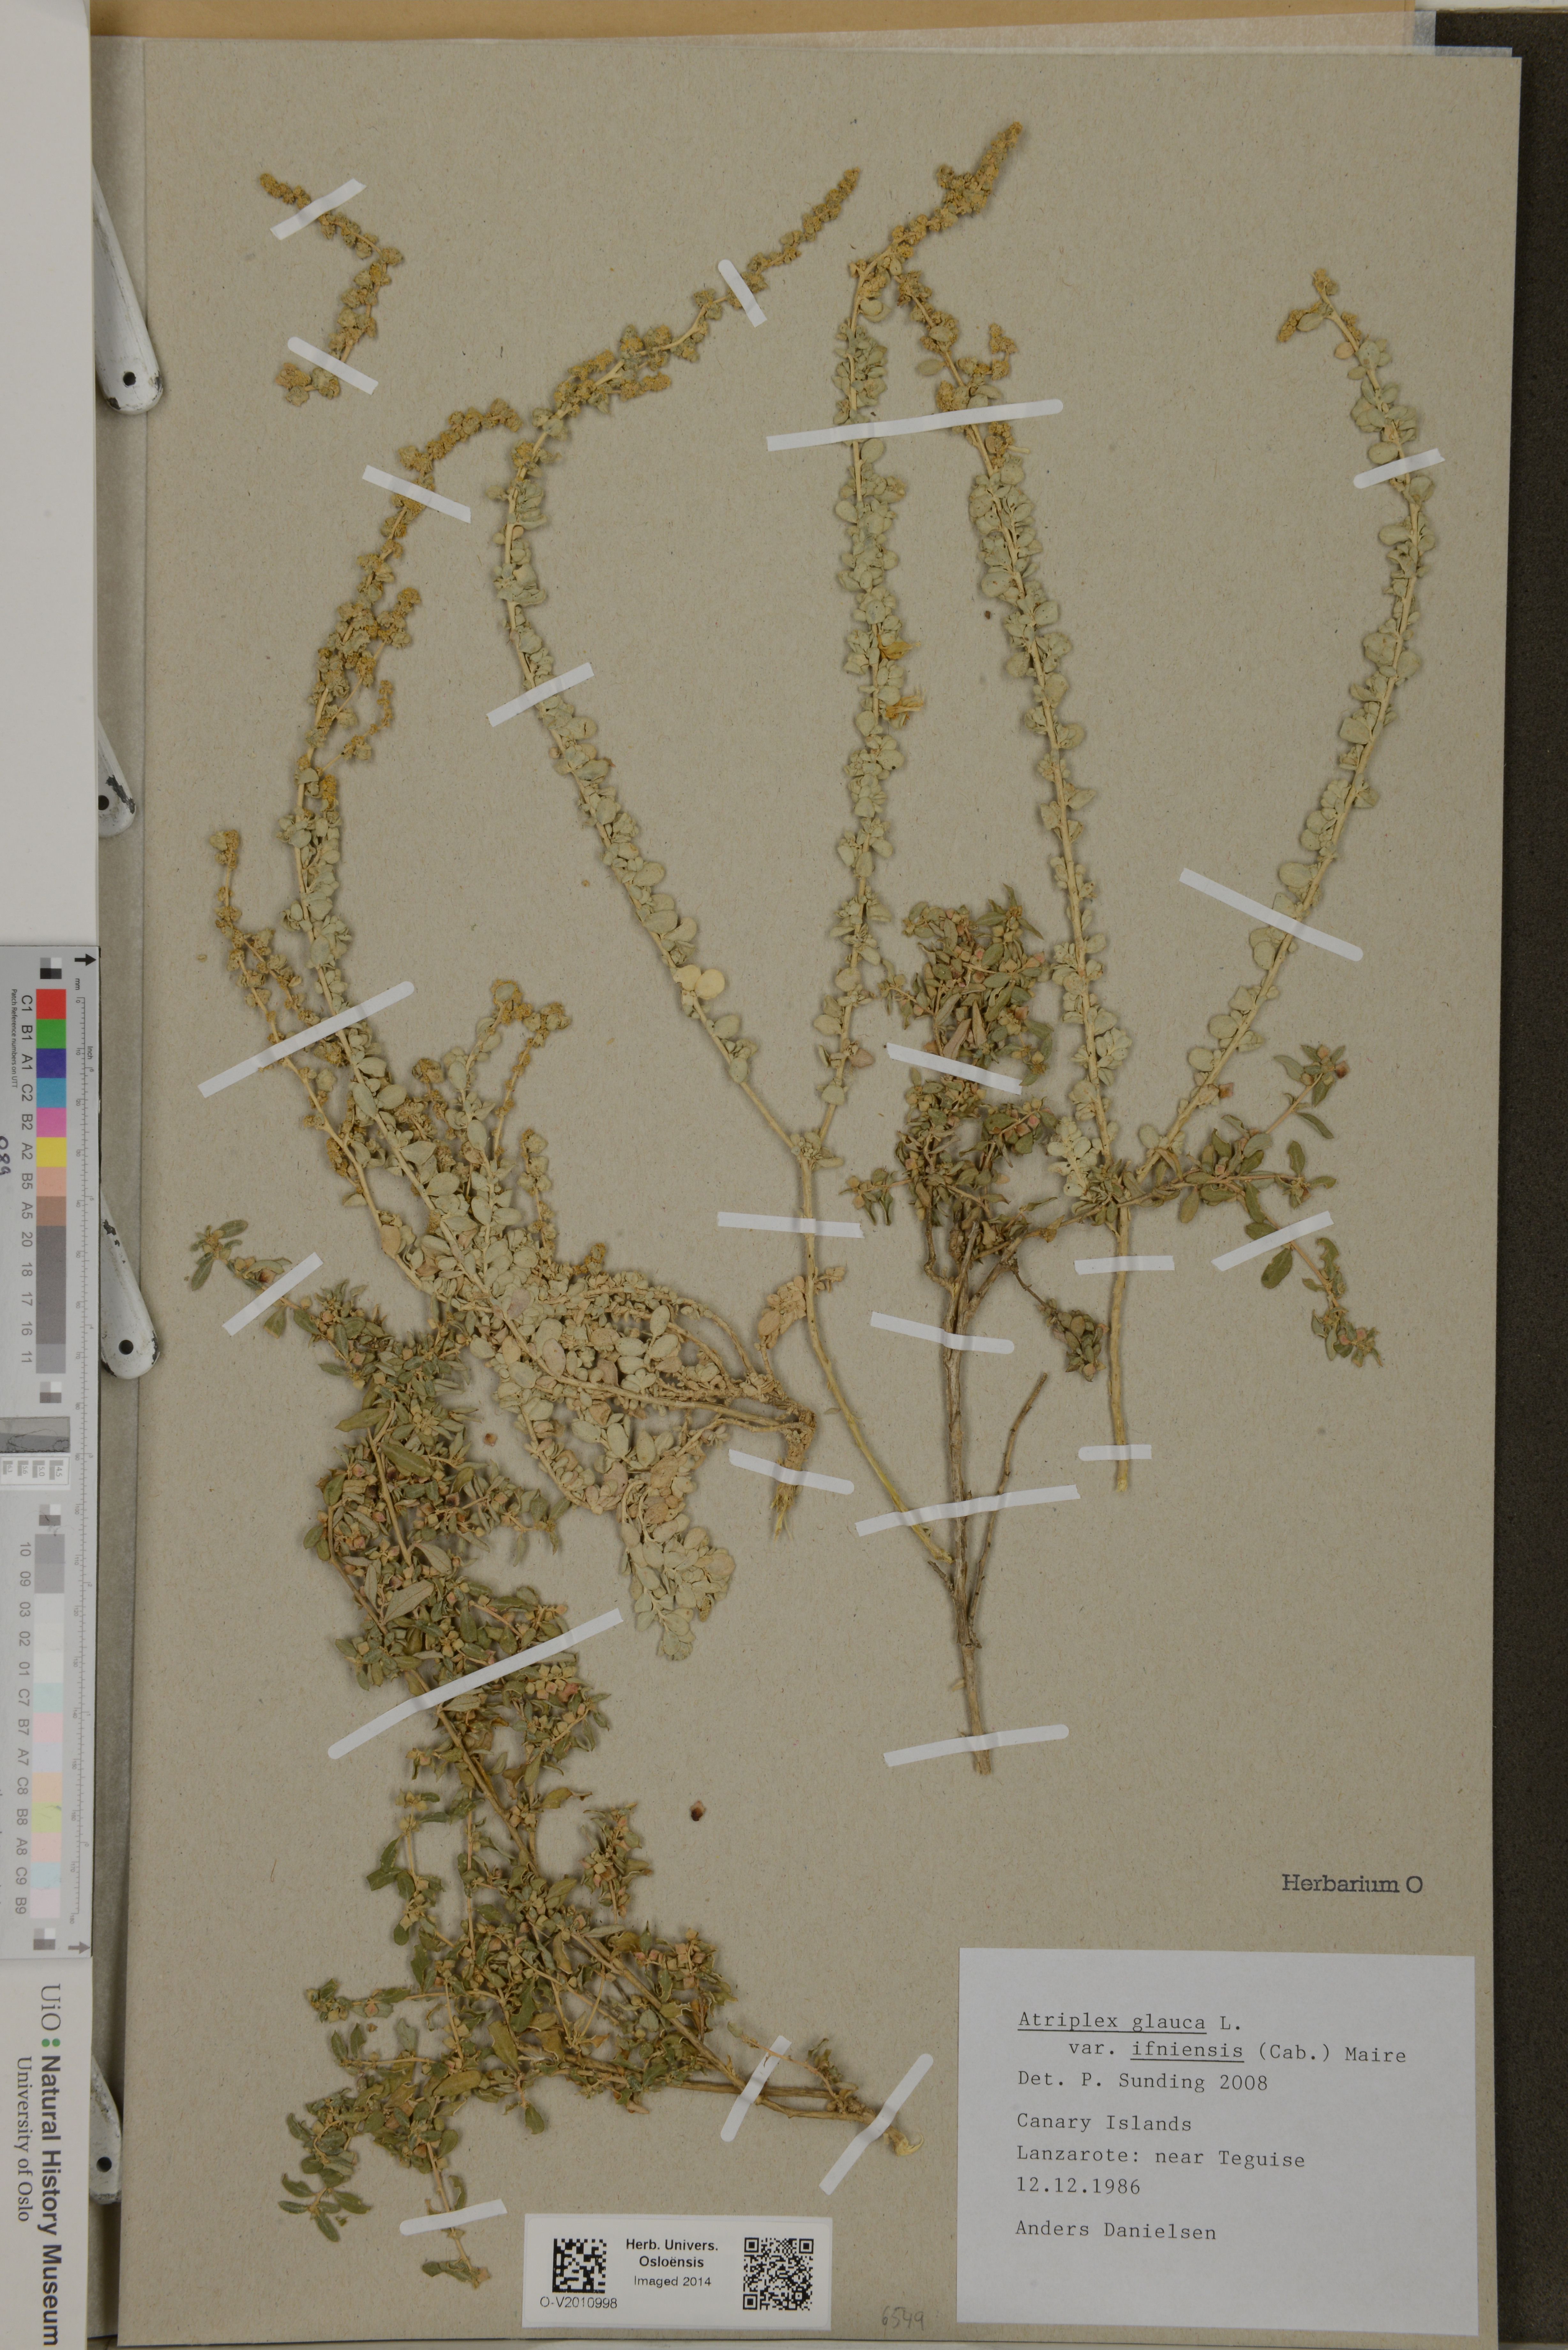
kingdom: Plantae
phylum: Tracheophyta
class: Magnoliopsida
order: Caryophyllales
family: Amaranthaceae
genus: Atriplex
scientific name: Atriplex glauca
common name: Waxy saltbush
